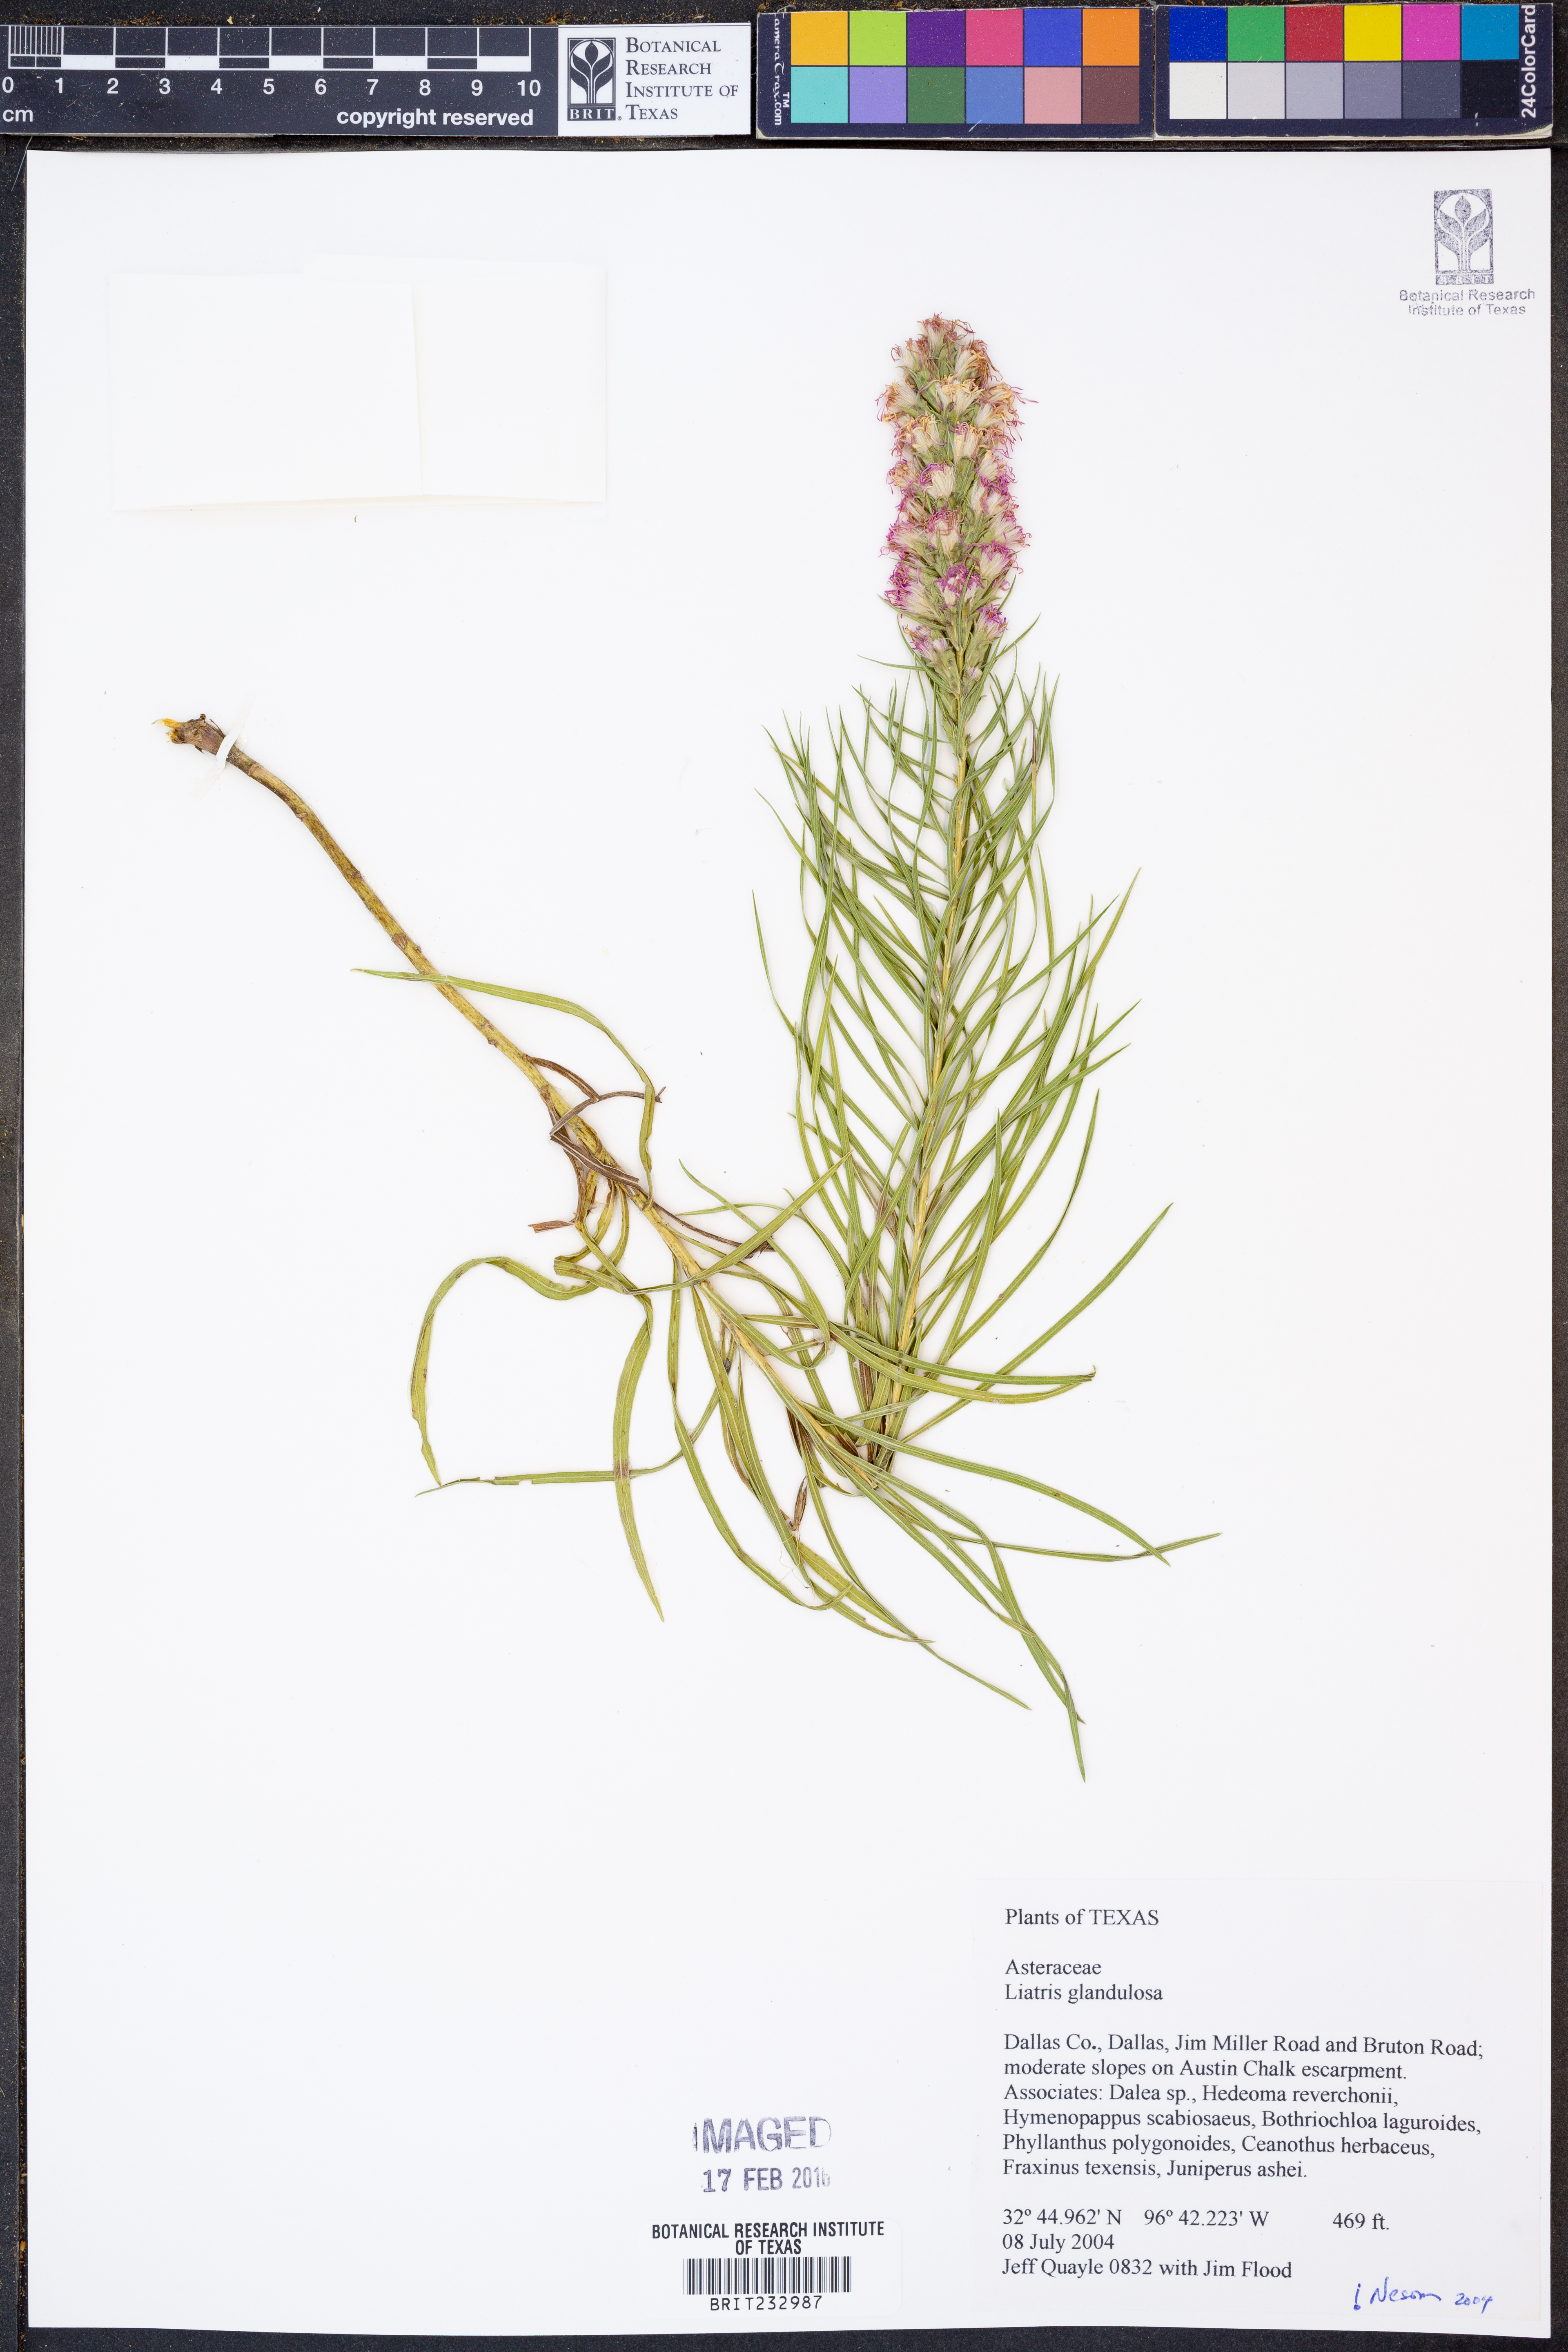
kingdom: Plantae
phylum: Tracheophyta
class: Magnoliopsida
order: Asterales
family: Asteraceae
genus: Liatris
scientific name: Liatris glandulosa
